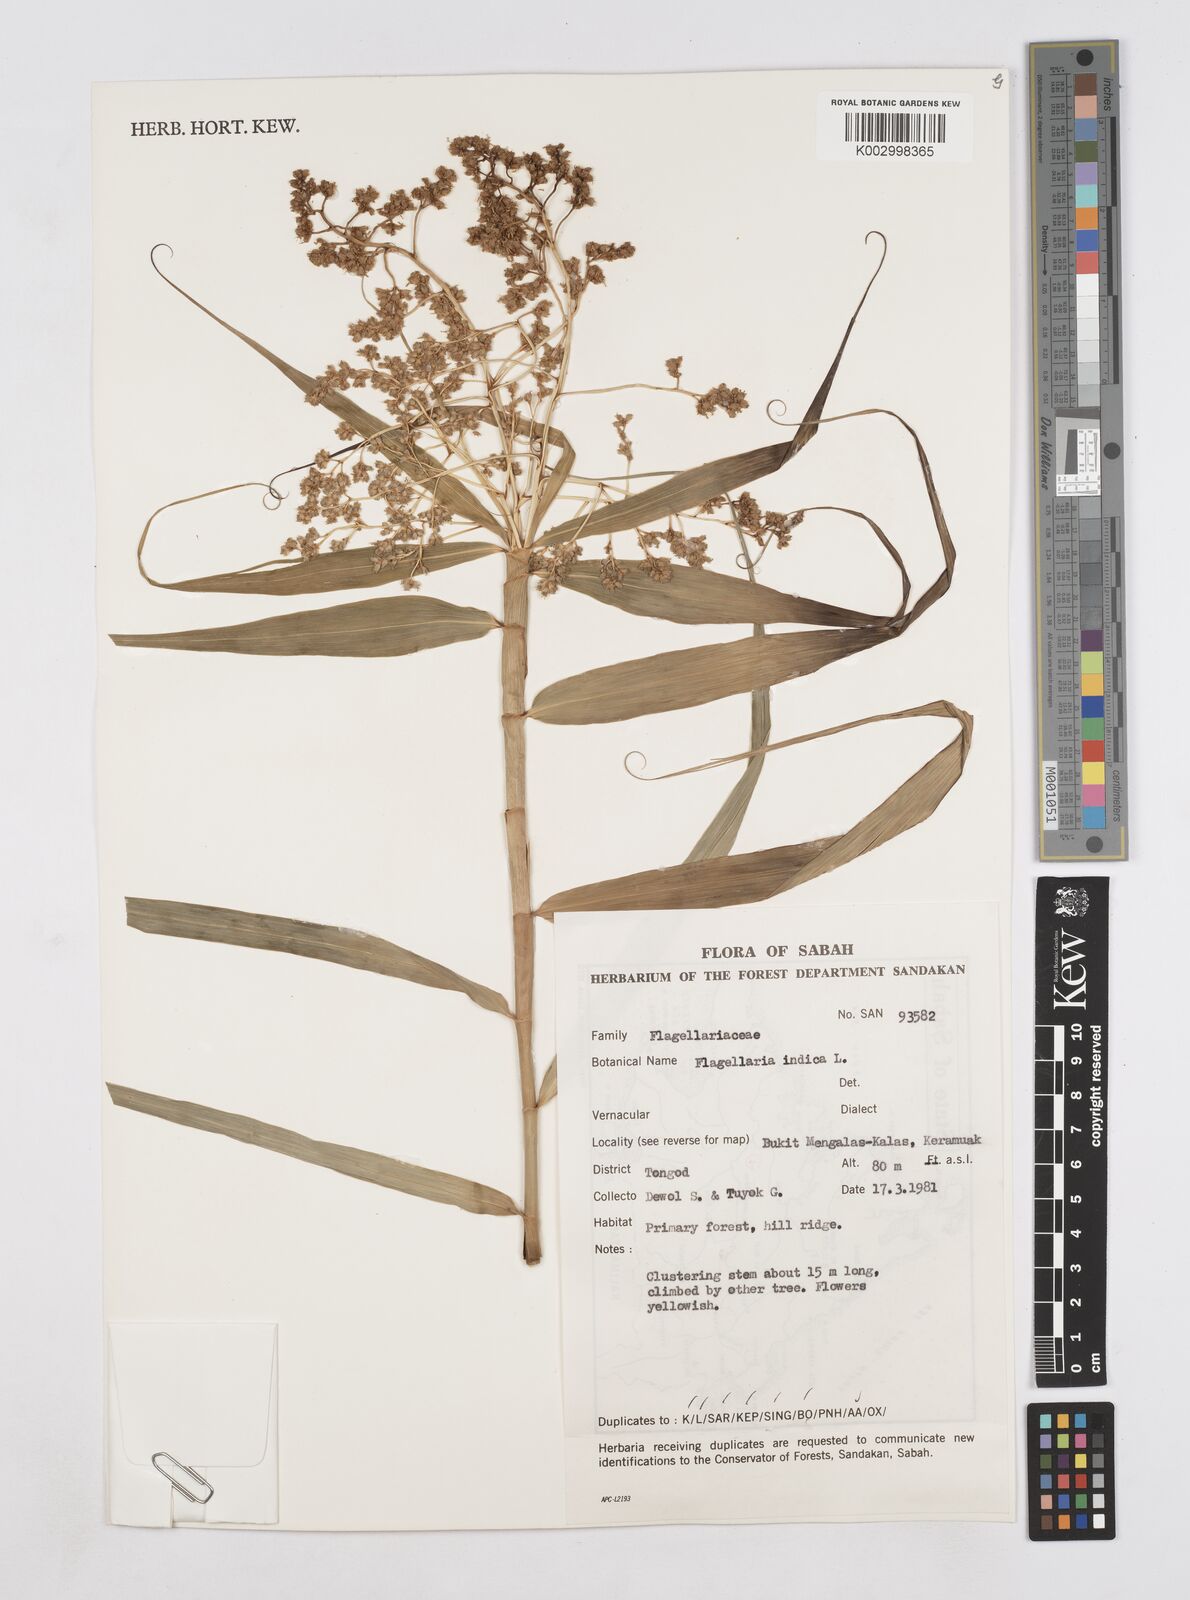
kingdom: Plantae
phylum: Tracheophyta
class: Liliopsida
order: Poales
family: Flagellariaceae
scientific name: Flagellariaceae
